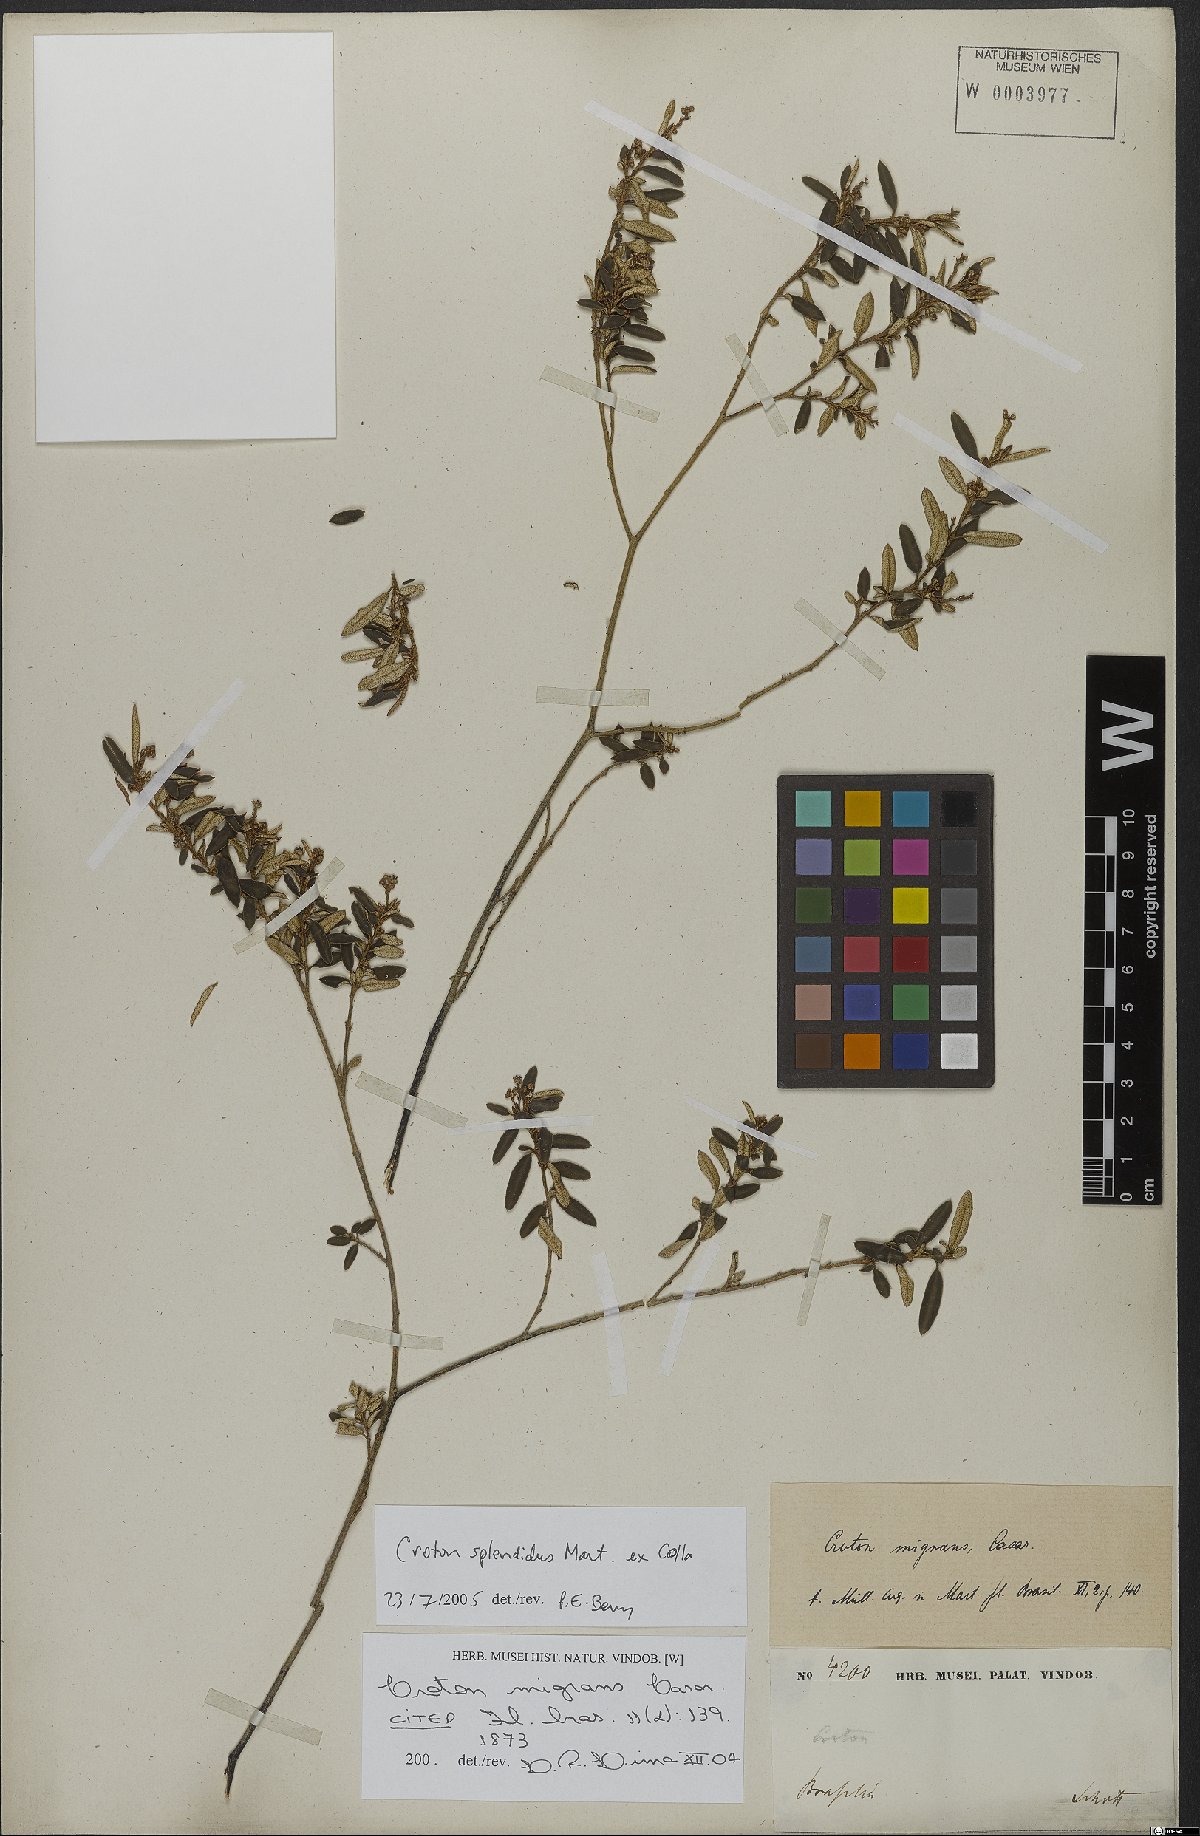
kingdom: Plantae
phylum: Tracheophyta
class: Magnoliopsida
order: Malpighiales
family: Euphorbiaceae
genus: Croton
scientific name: Croton splendidus
